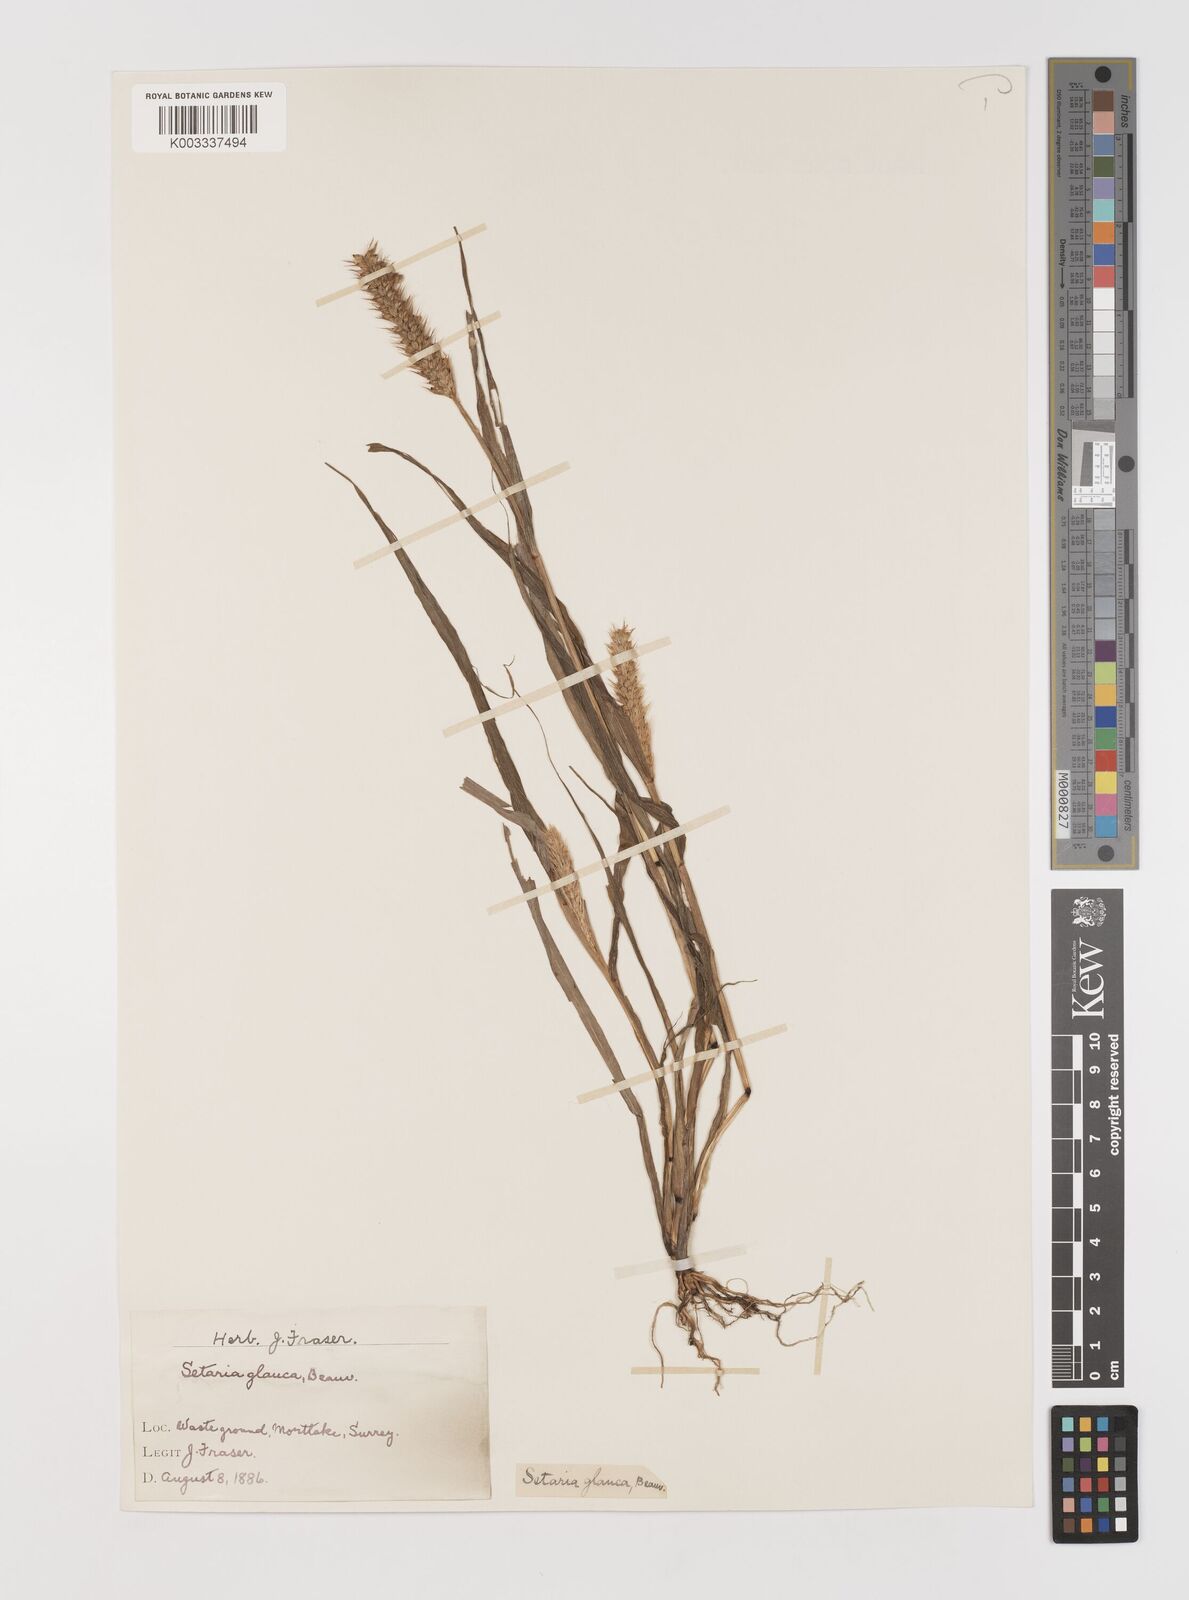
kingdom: Plantae
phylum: Tracheophyta
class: Liliopsida
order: Poales
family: Poaceae
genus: Setaria
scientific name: Setaria pumila
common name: Yellow bristle-grass
